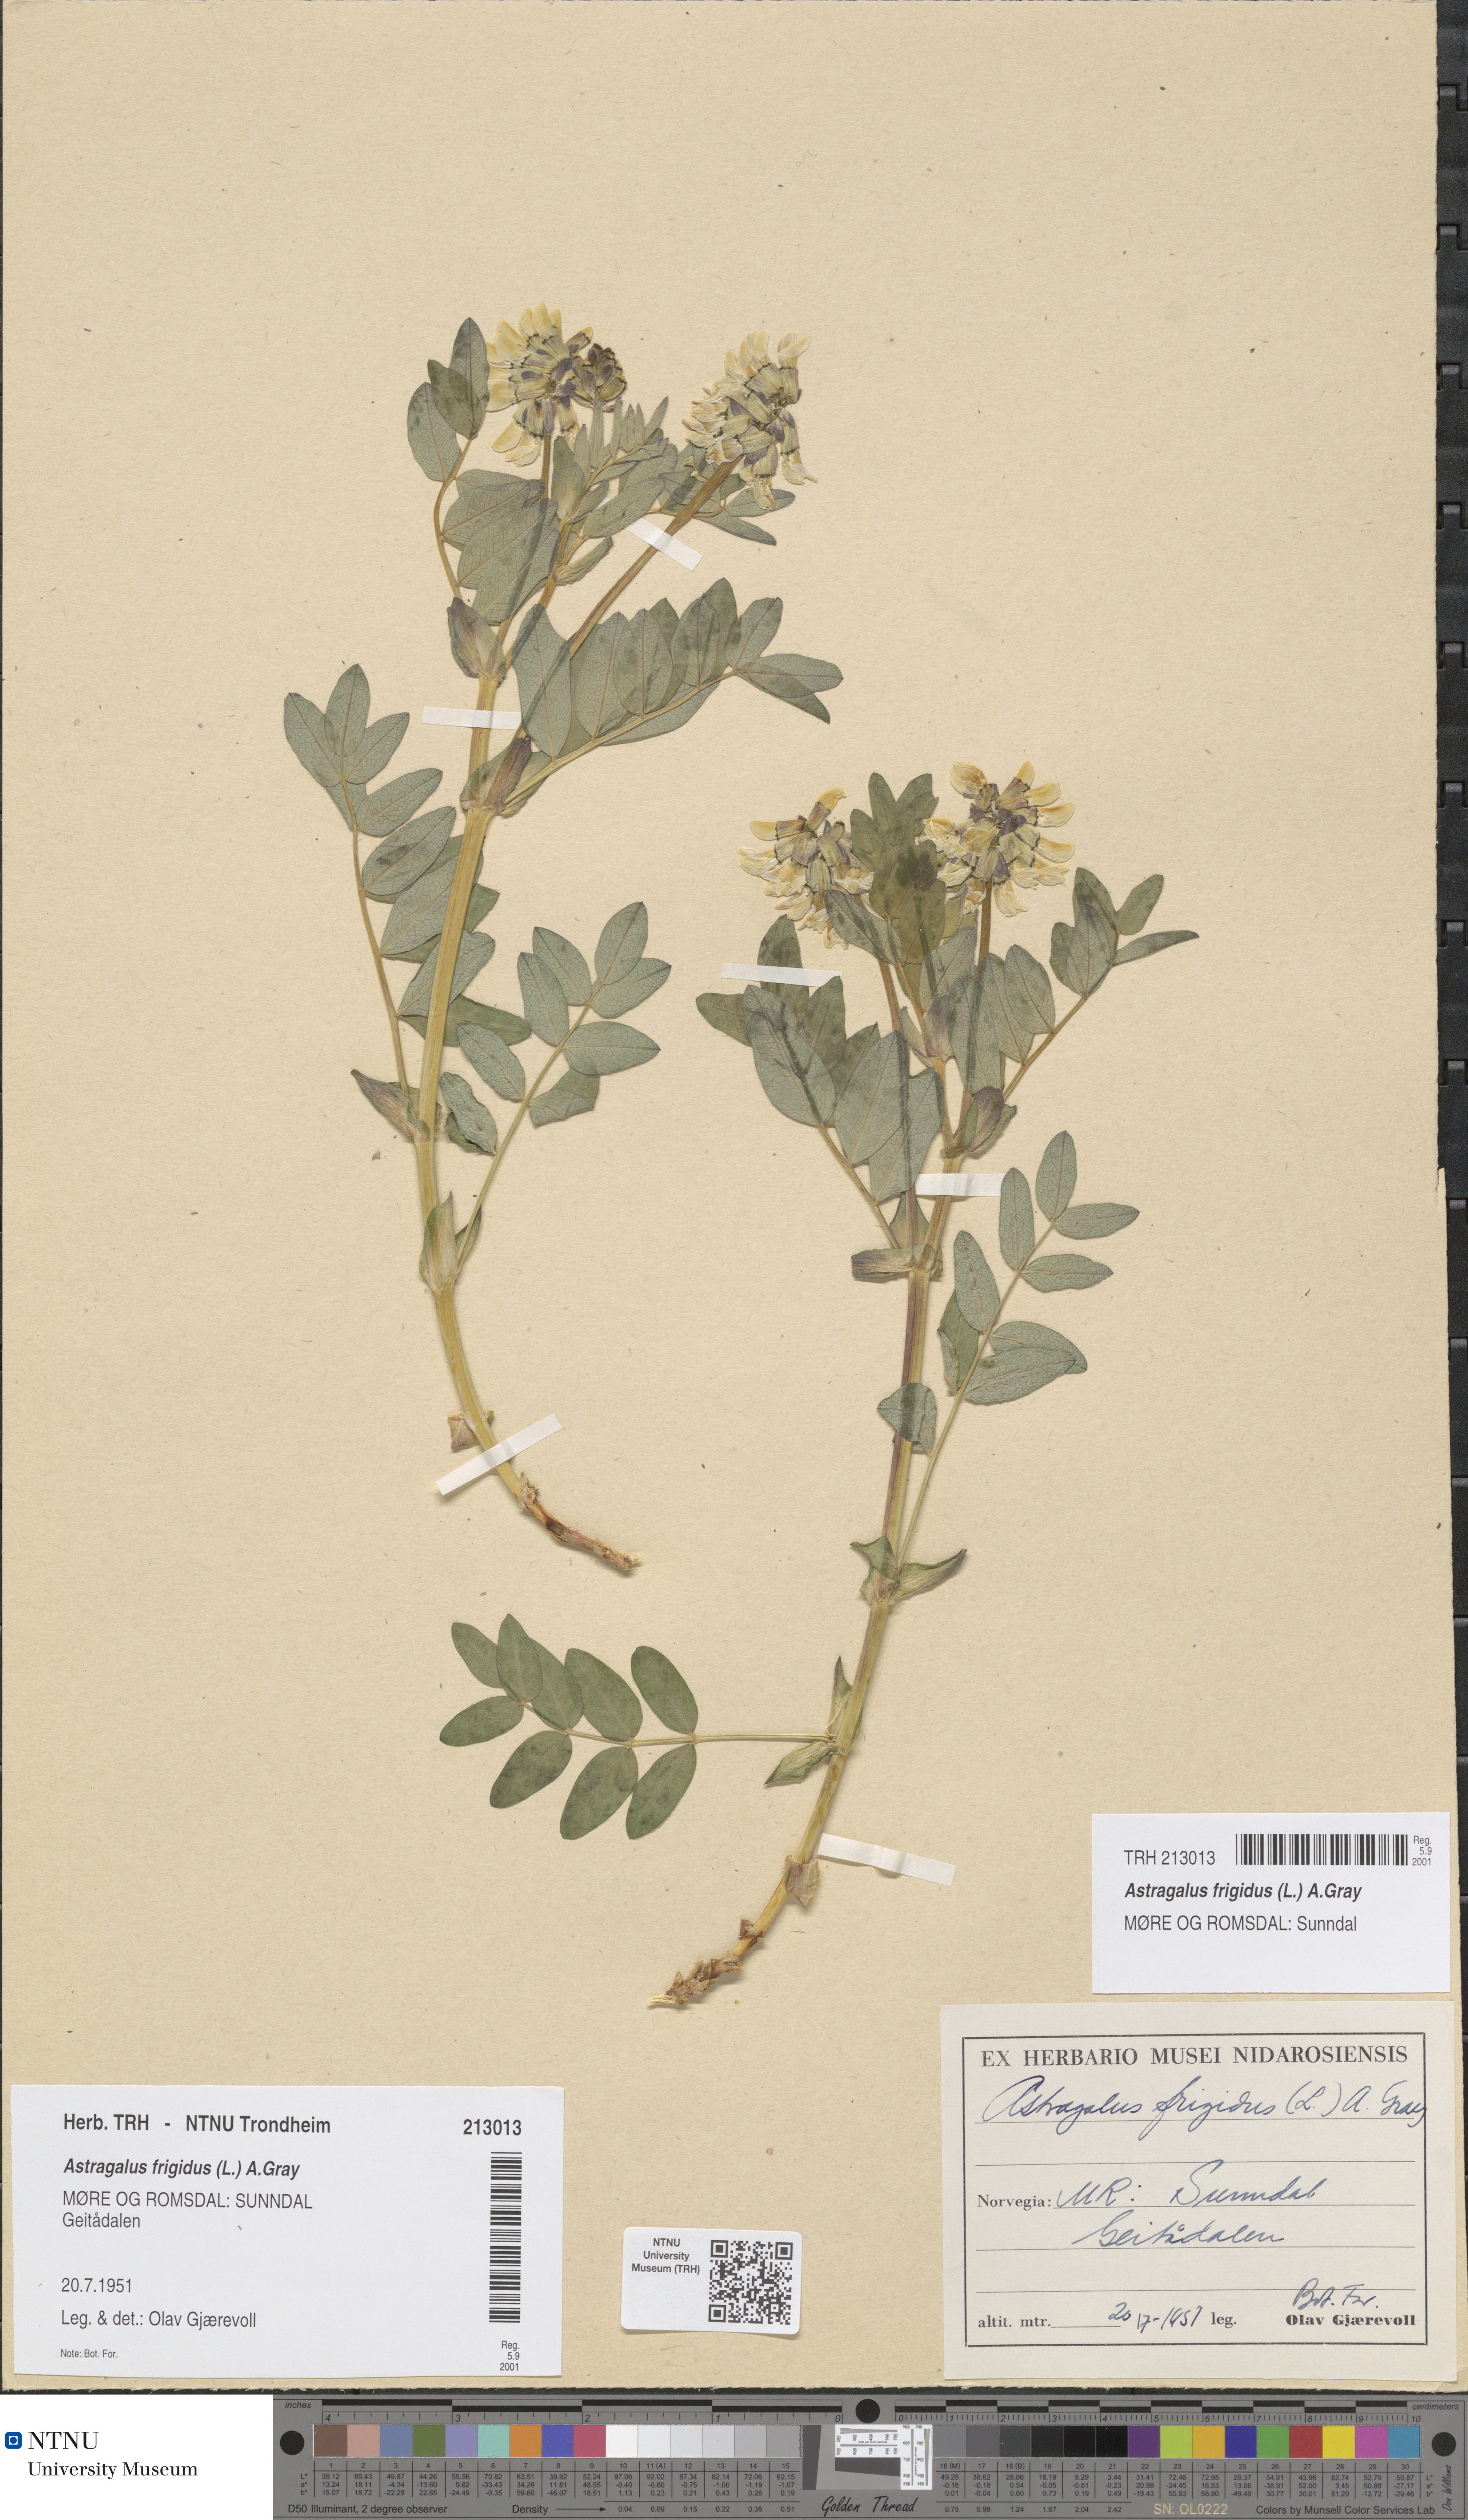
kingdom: Plantae
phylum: Tracheophyta
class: Magnoliopsida
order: Fabales
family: Fabaceae
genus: Astragalus
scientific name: Astragalus frigidus
